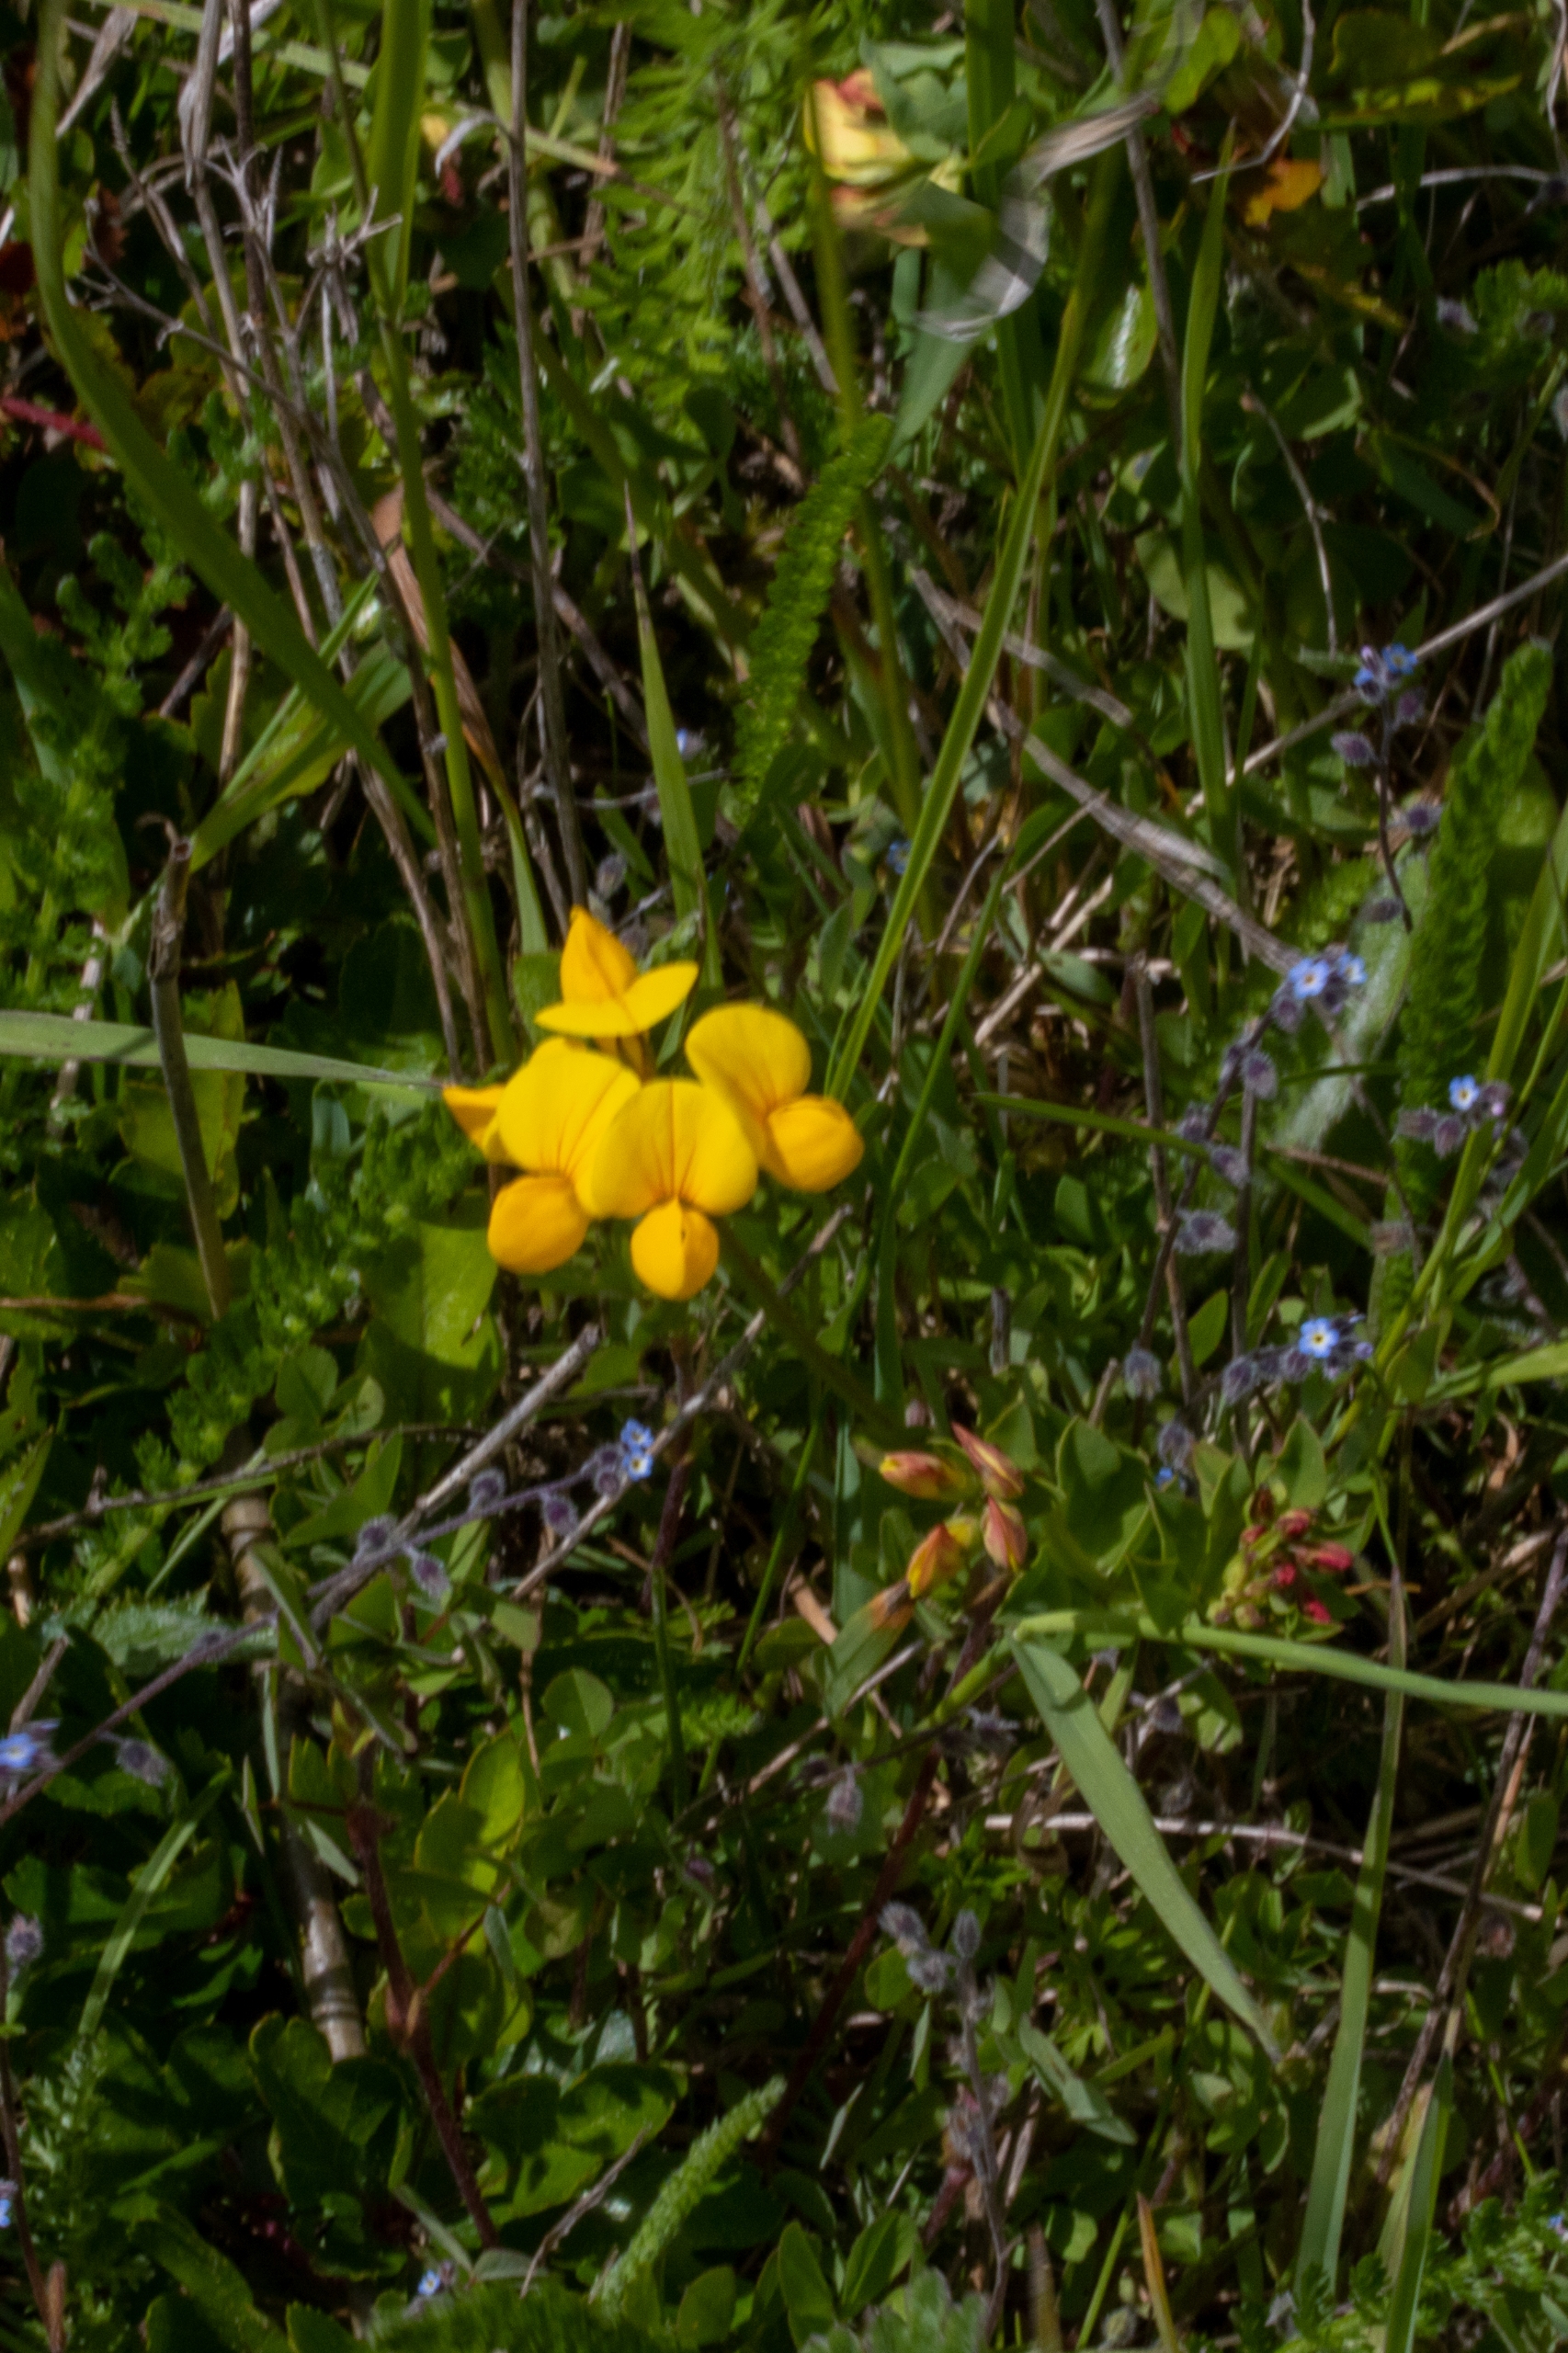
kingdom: Plantae
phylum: Tracheophyta
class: Magnoliopsida
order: Fabales
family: Fabaceae
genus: Lotus
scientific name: Lotus corniculatus
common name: Almindelig kællingetand
